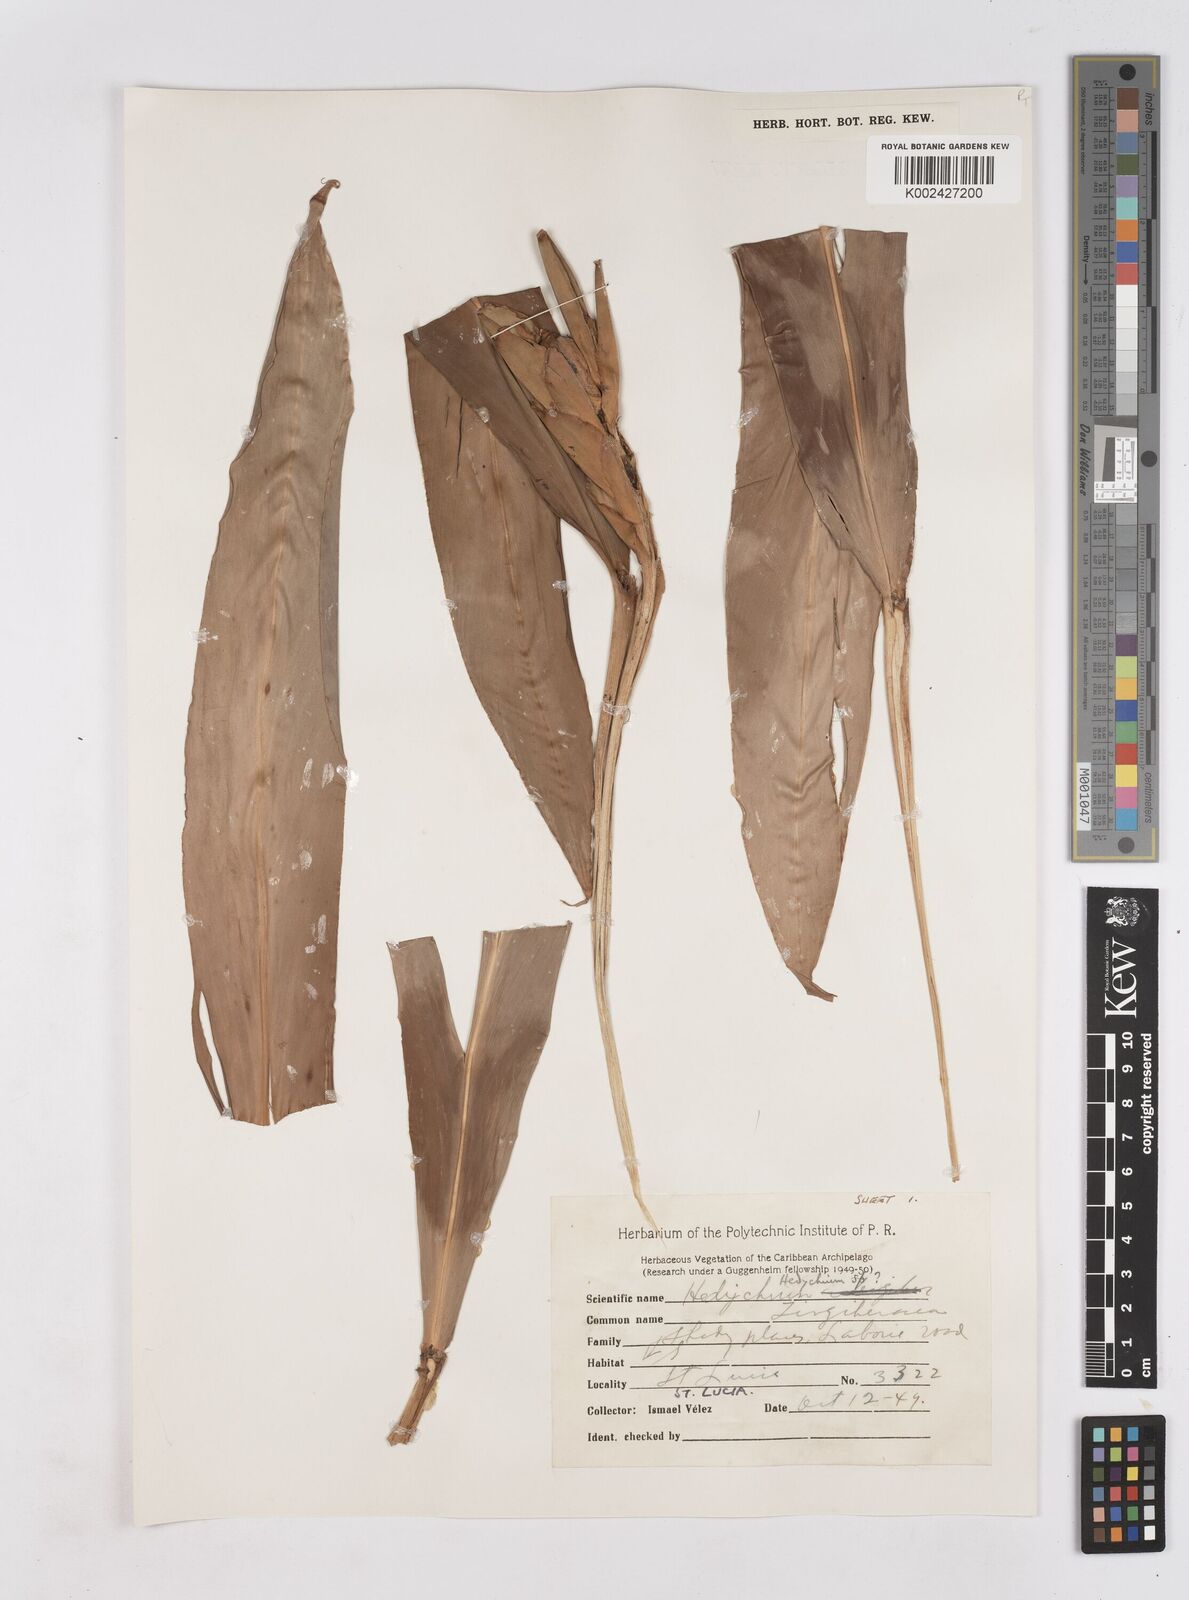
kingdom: Plantae
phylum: Tracheophyta
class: Liliopsida
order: Zingiberales
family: Zingiberaceae
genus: Hedychium
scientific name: Hedychium
